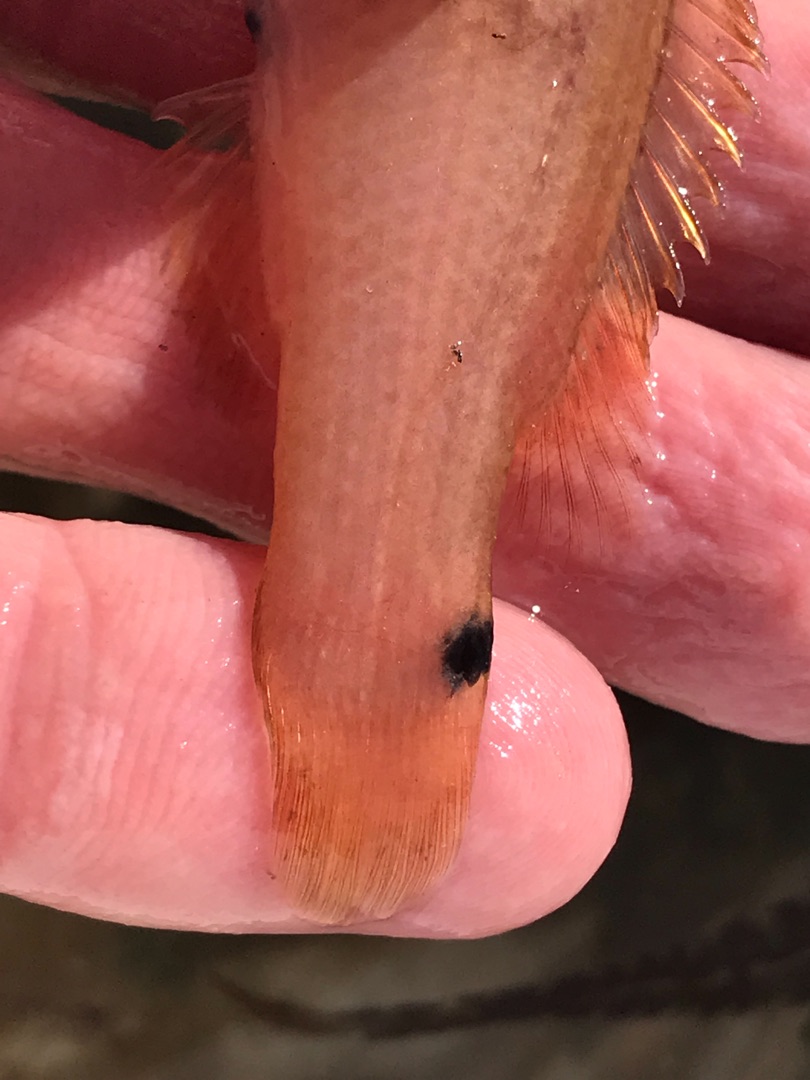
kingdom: Animalia
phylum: Chordata
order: Perciformes
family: Labridae
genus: Ctenolabrus
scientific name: Ctenolabrus rupestris
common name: Havkarusse
